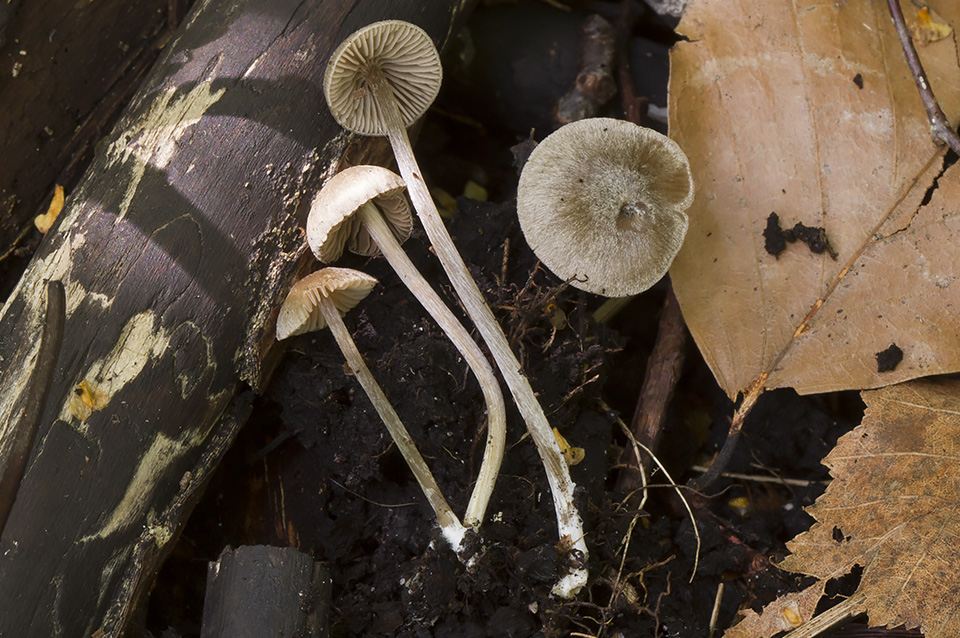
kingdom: Fungi
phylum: Basidiomycota
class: Agaricomycetes
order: Agaricales
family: Entolomataceae
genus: Entoloma
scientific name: Entoloma simulans
